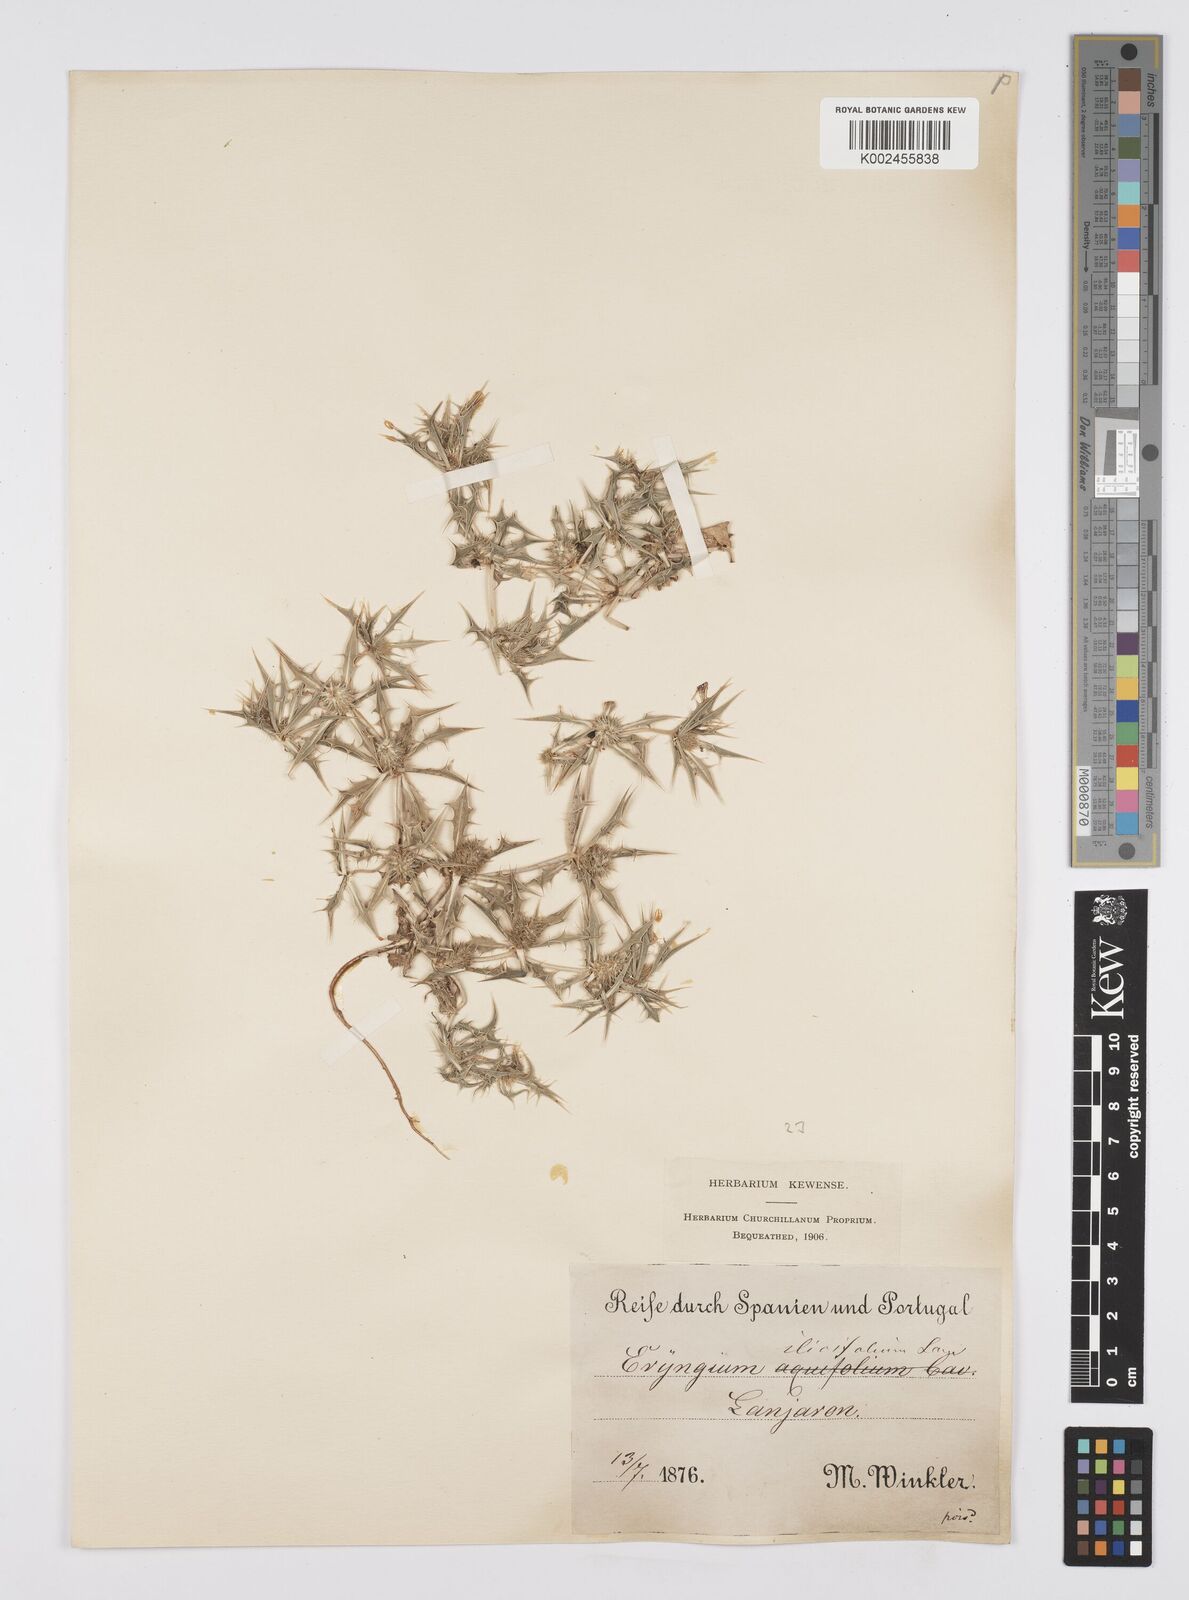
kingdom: Plantae
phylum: Tracheophyta
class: Magnoliopsida
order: Apiales
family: Apiaceae
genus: Eryngium
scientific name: Eryngium
